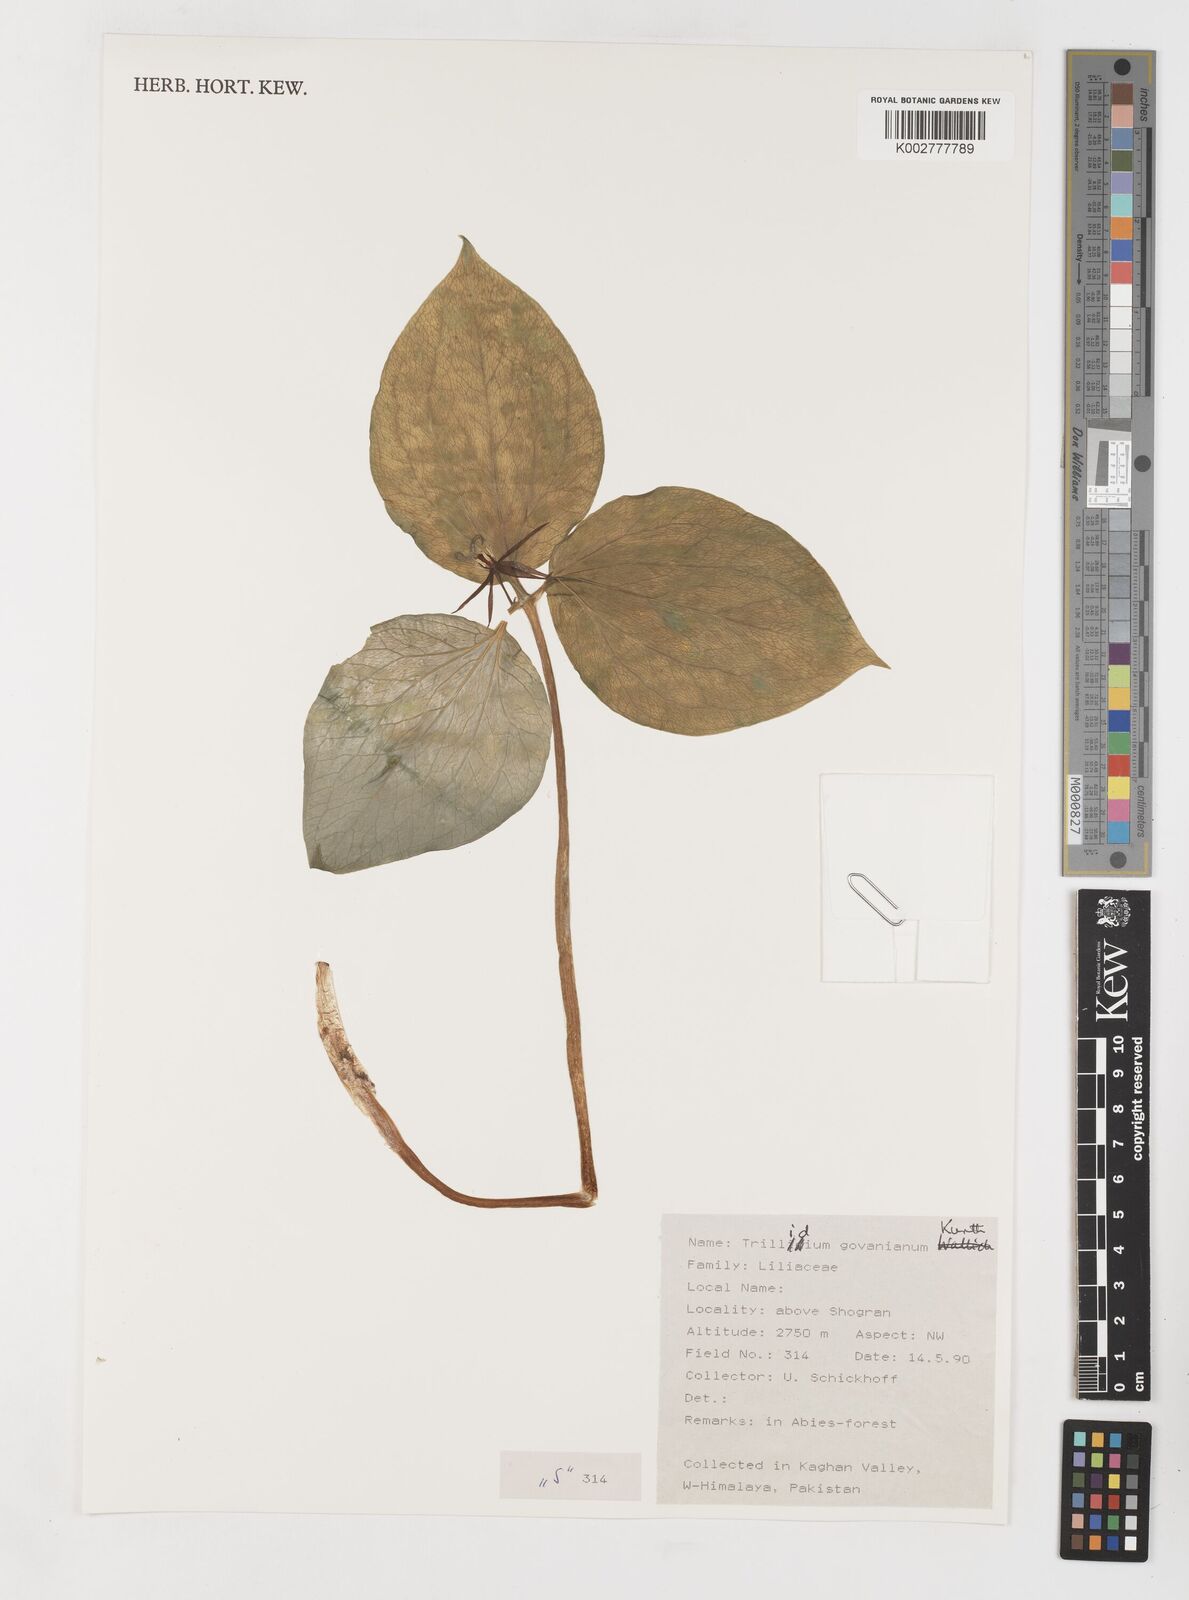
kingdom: Plantae
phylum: Tracheophyta
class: Liliopsida
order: Liliales
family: Melanthiaceae
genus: Trillium
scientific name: Trillium govanianum
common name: Himalayan trillium
